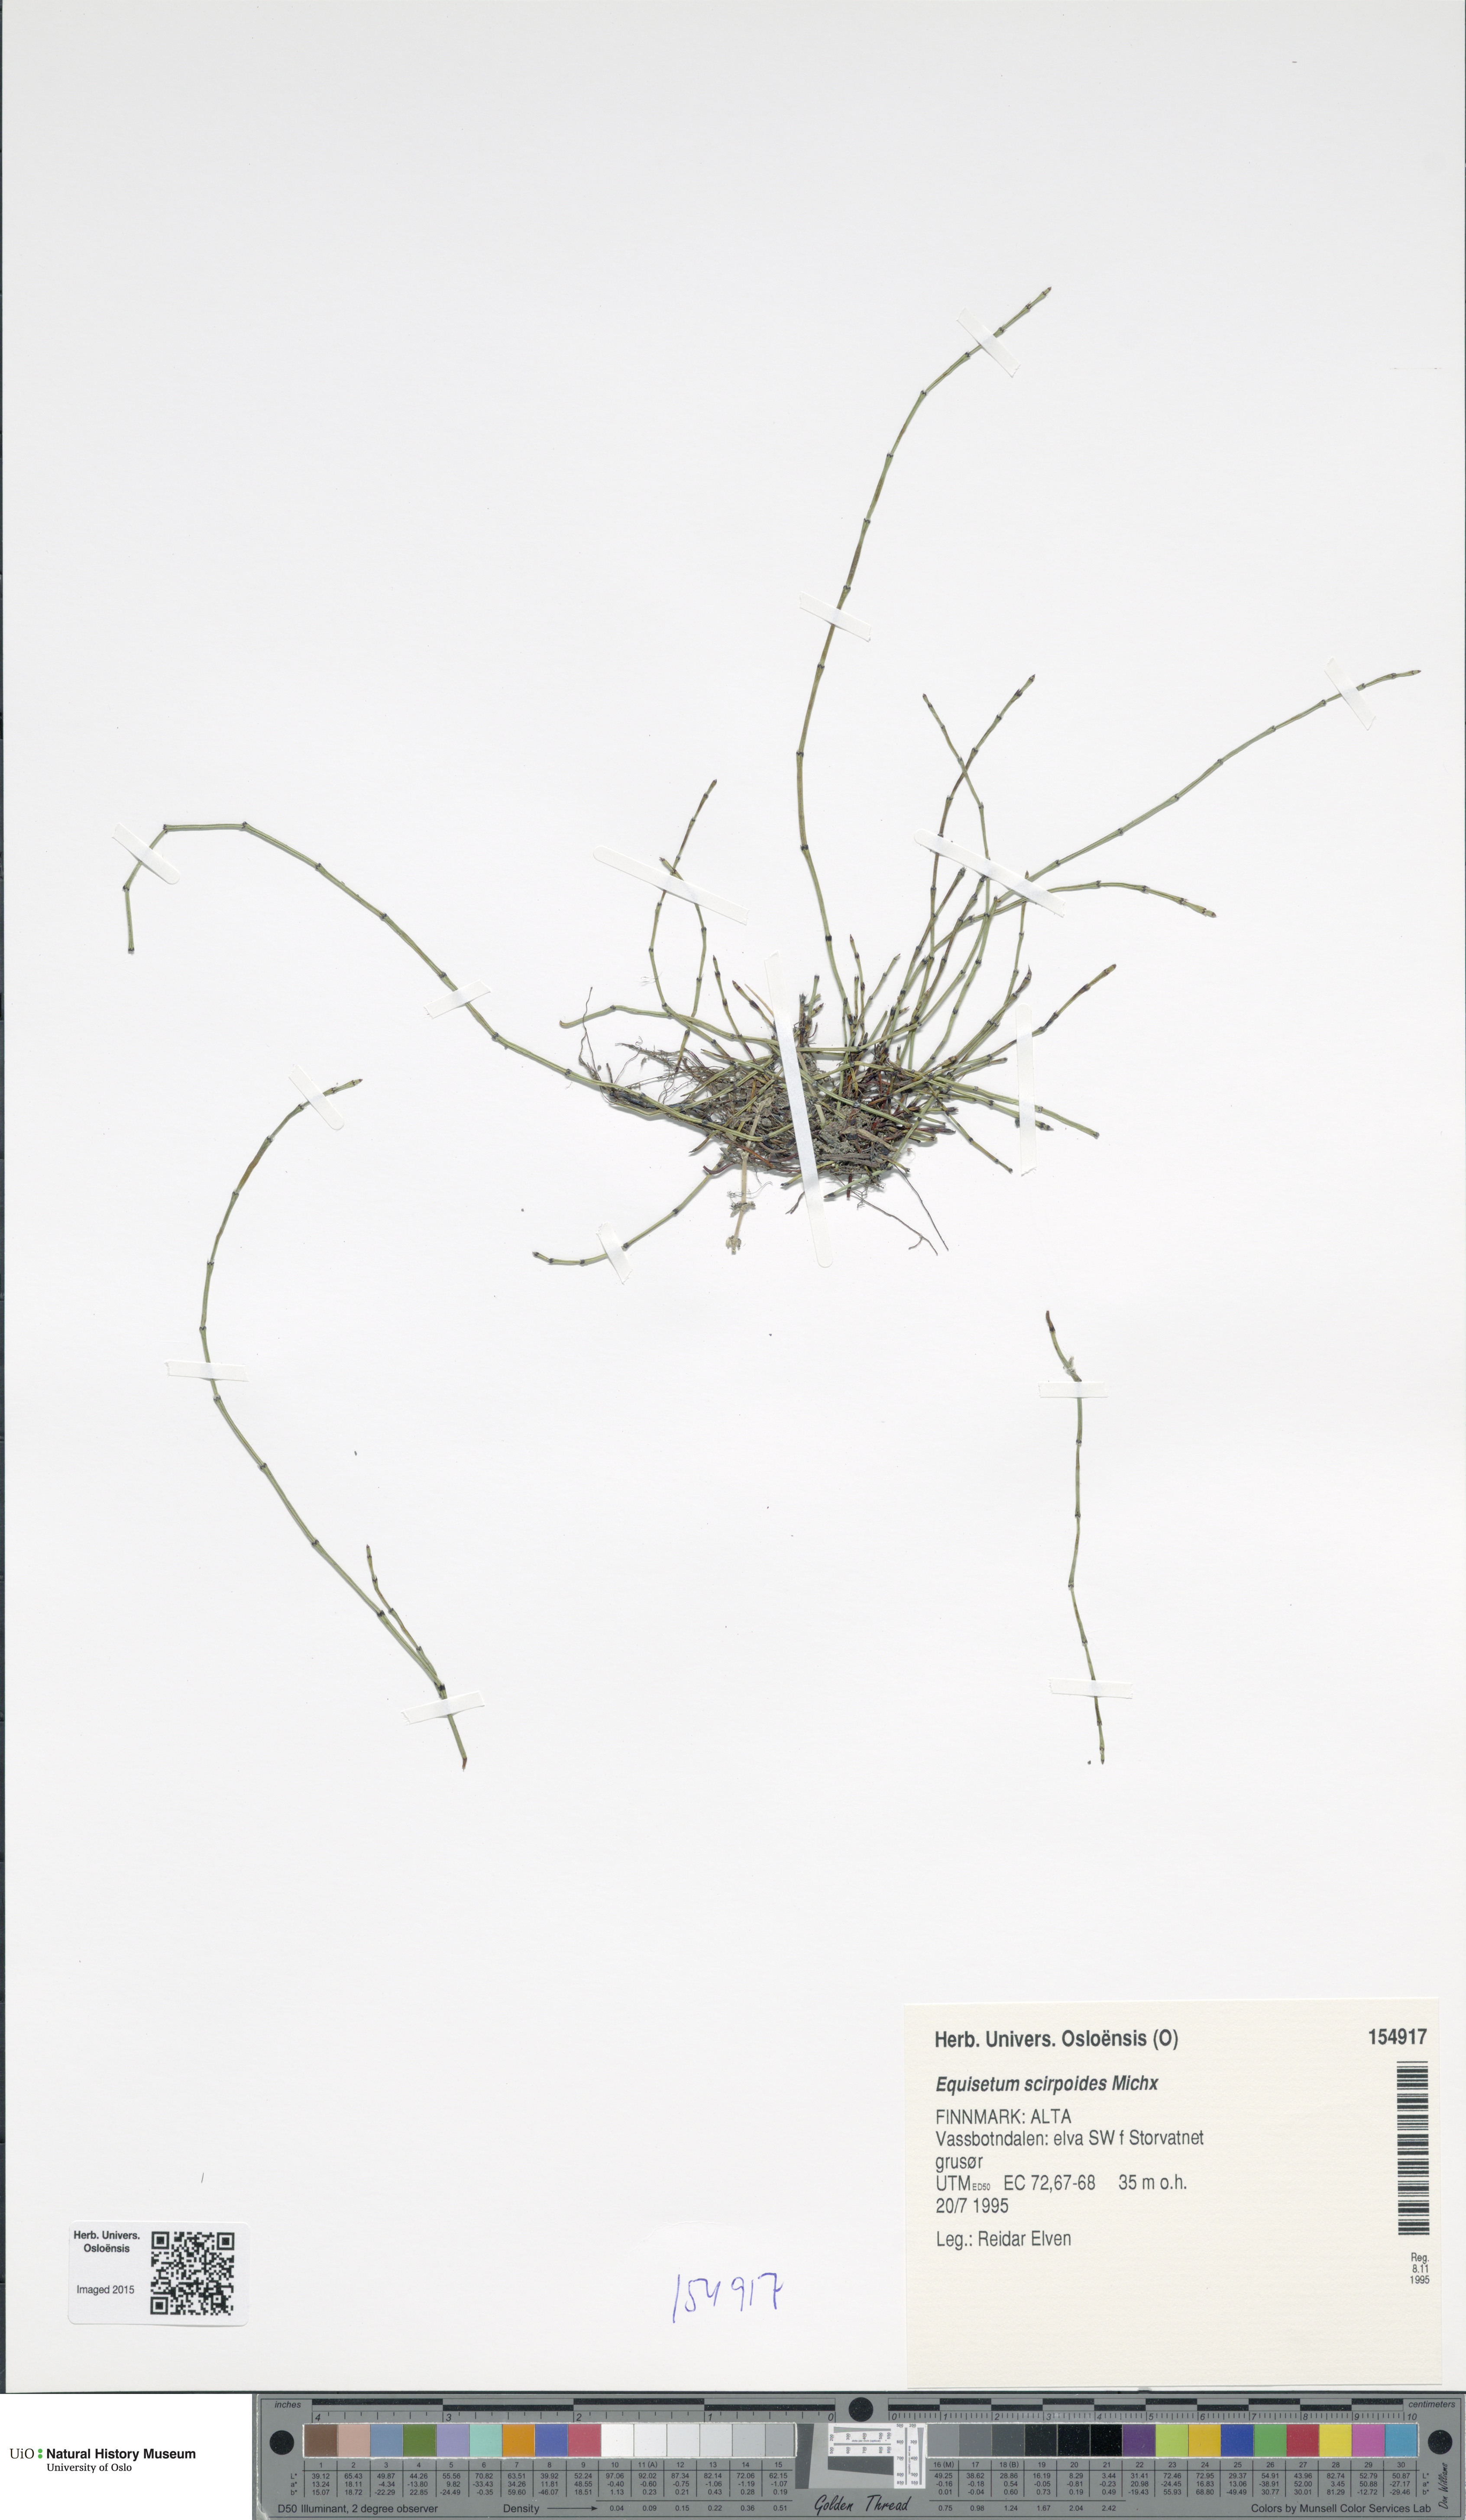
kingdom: Plantae
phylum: Tracheophyta
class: Polypodiopsida
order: Equisetales
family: Equisetaceae
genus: Equisetum
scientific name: Equisetum scirpoides
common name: Delicate horsetail
